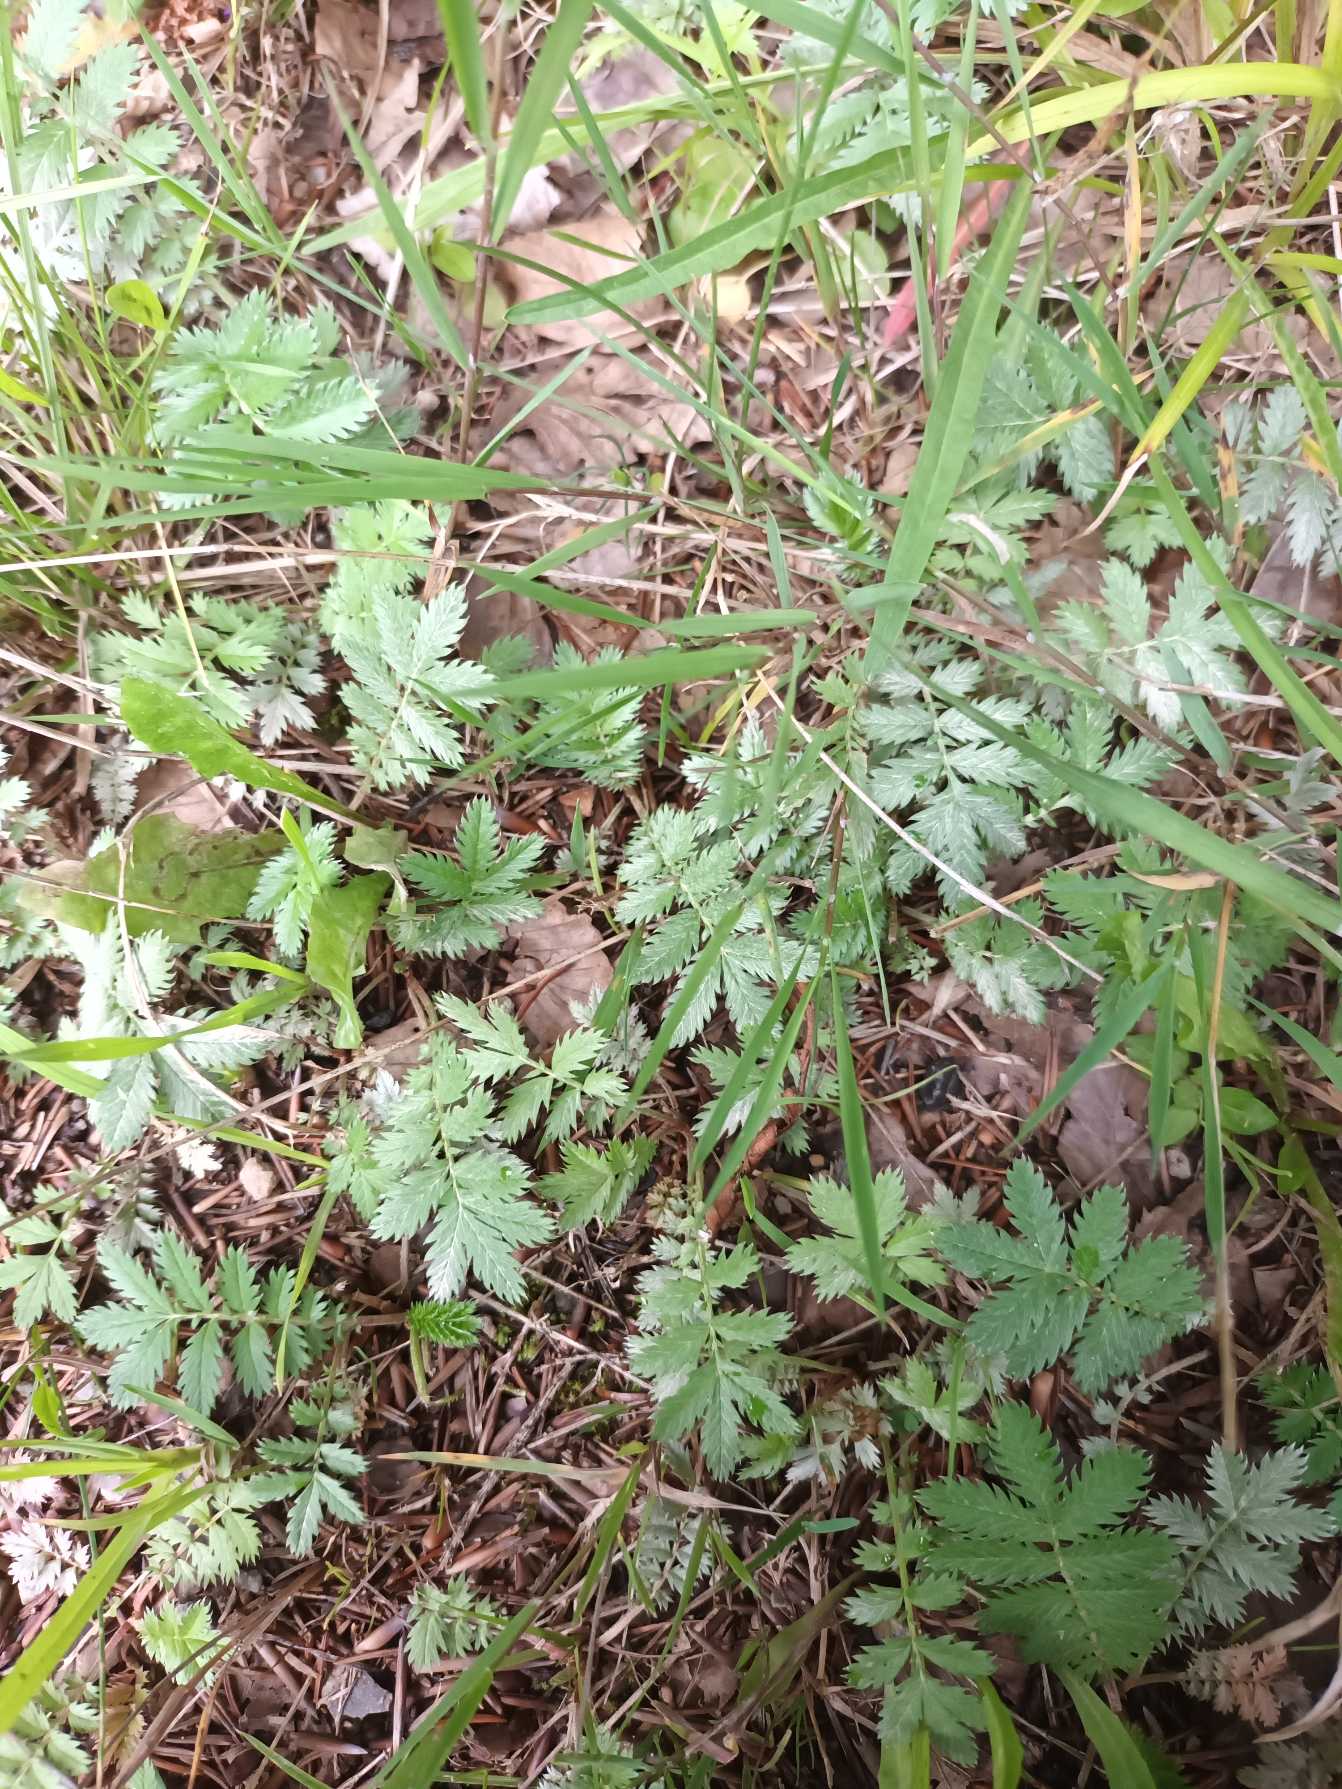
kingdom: Plantae
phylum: Tracheophyta
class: Magnoliopsida
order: Rosales
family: Rosaceae
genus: Argentina
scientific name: Argentina anserina
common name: Gåsepotentil
